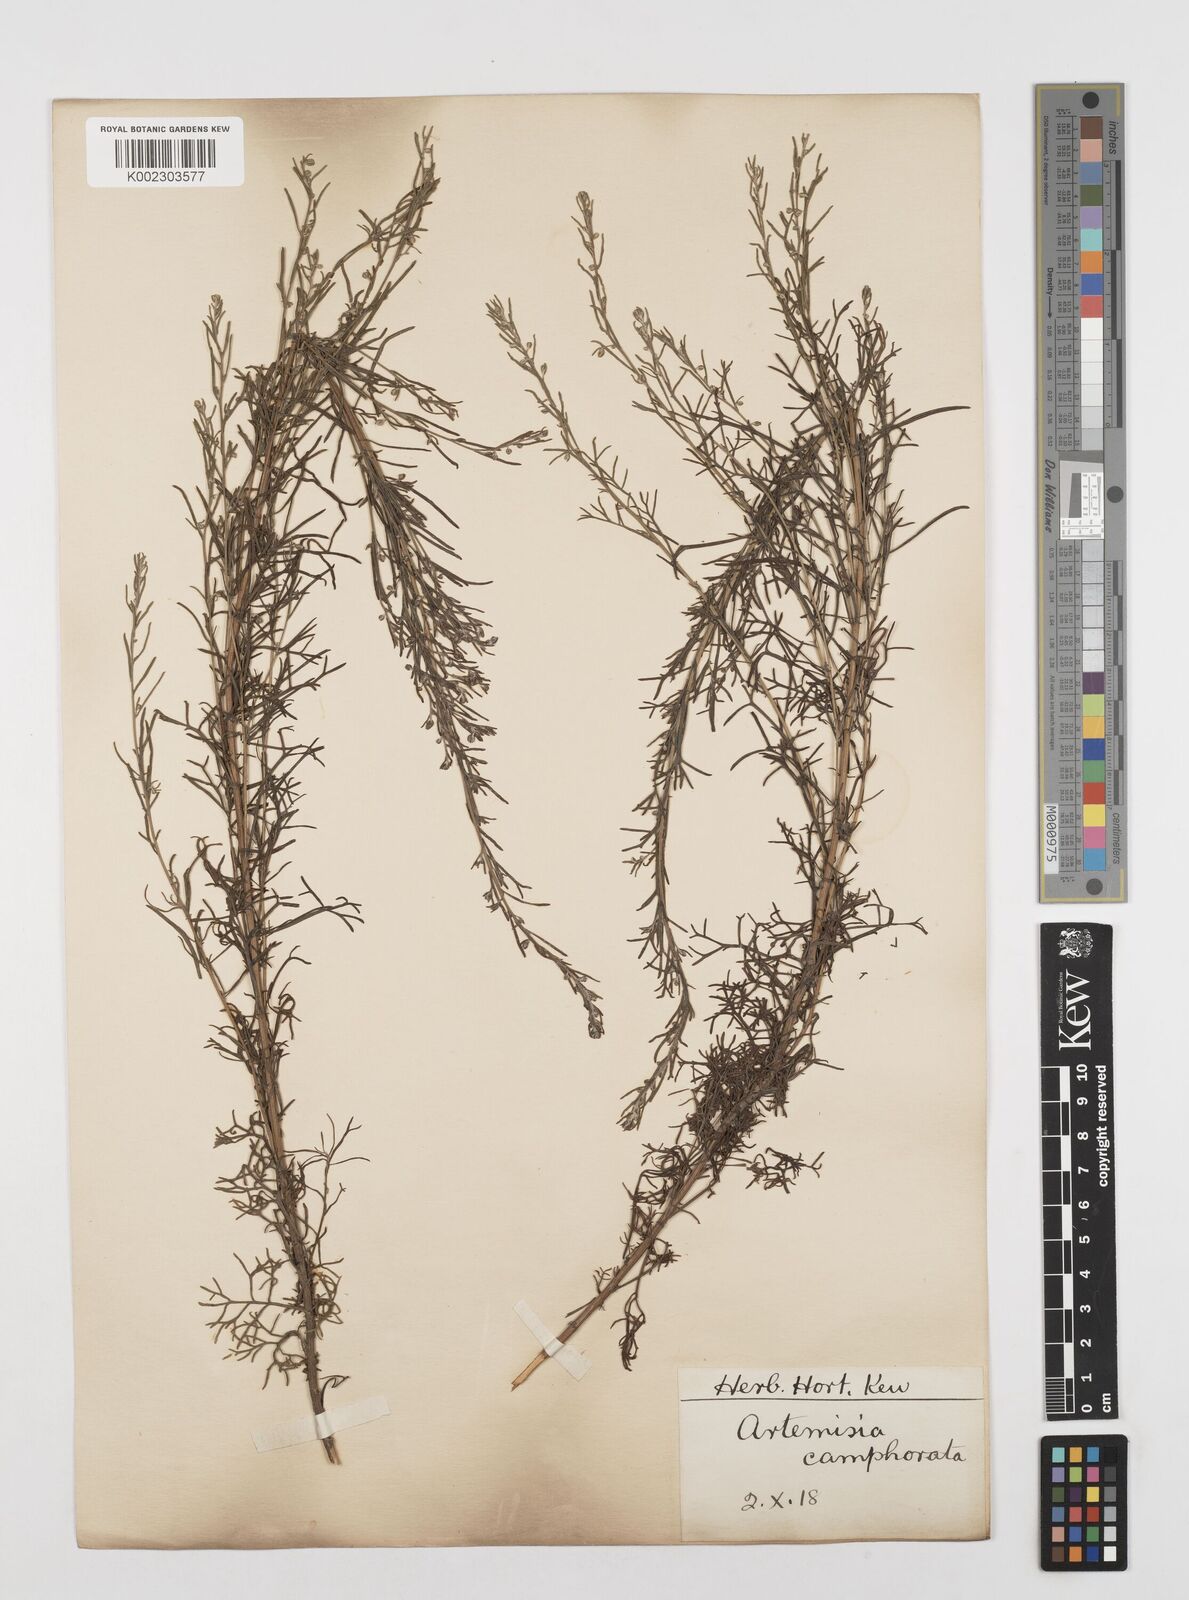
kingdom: Plantae
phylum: Tracheophyta
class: Magnoliopsida
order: Asterales
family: Asteraceae
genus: Artemisia
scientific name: Artemisia alba
